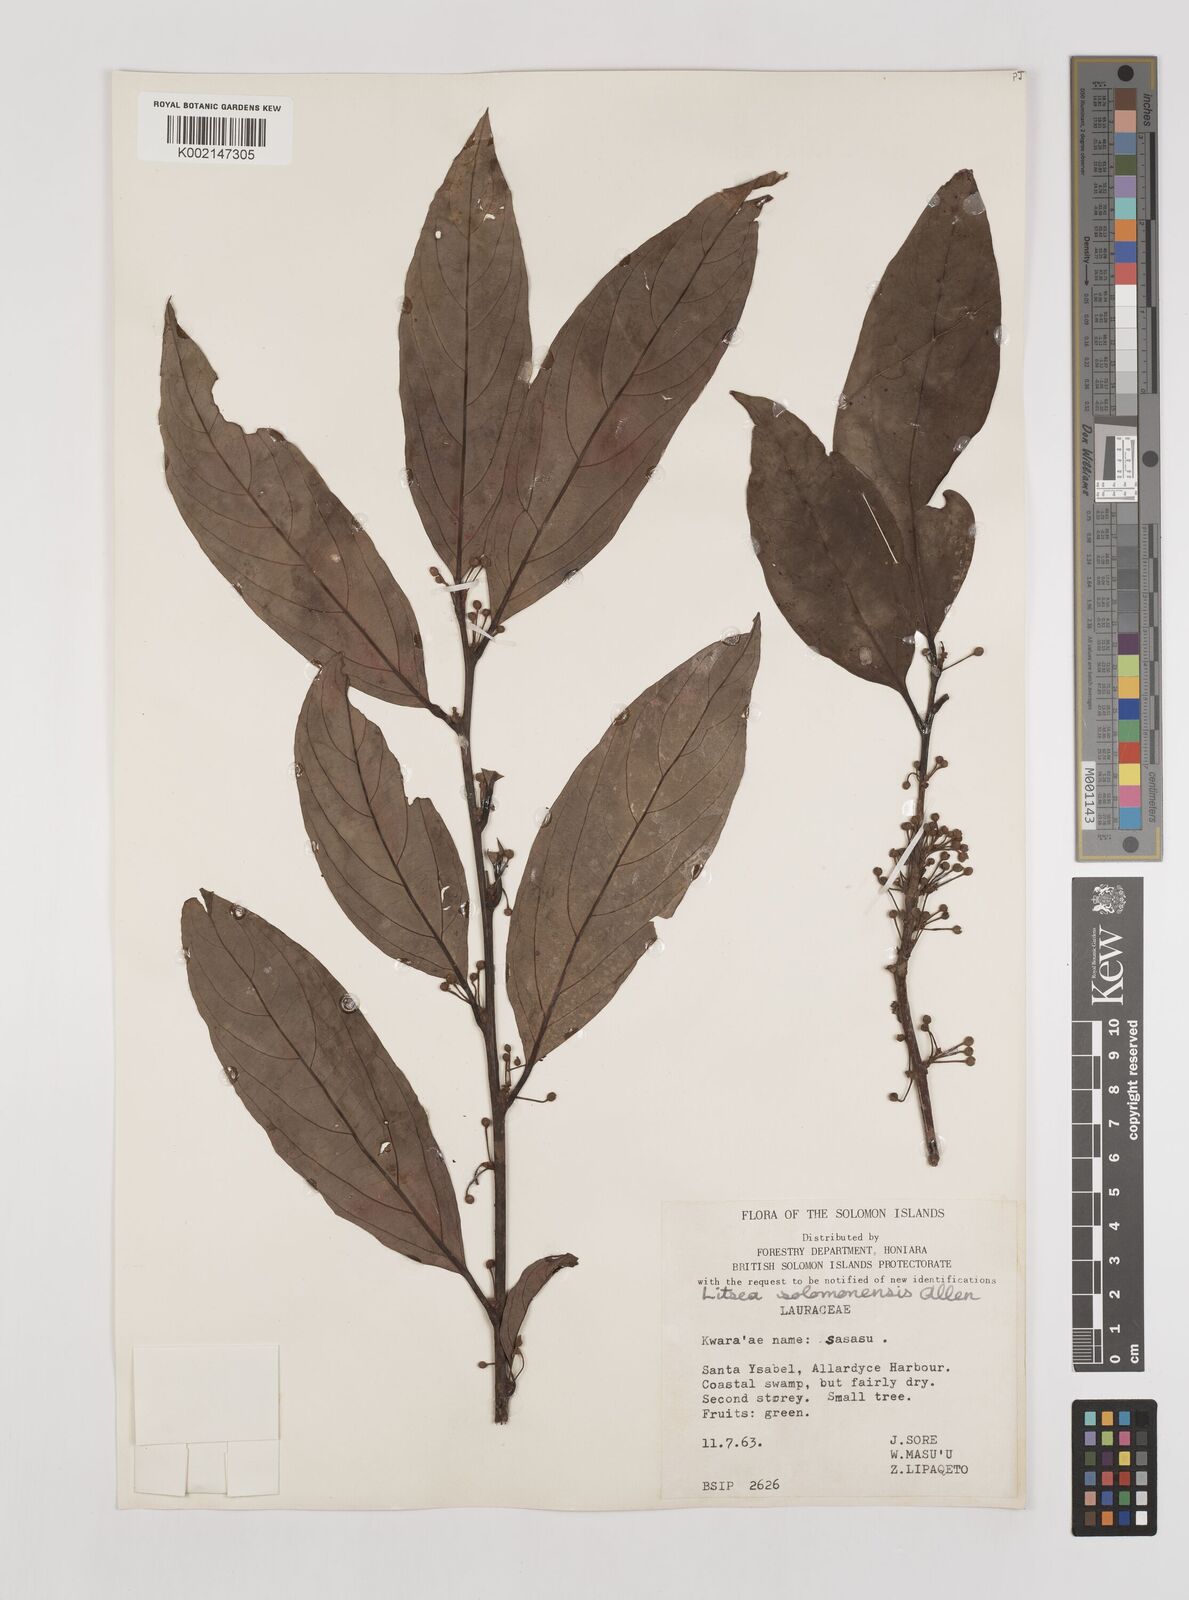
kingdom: Plantae
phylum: Tracheophyta
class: Magnoliopsida
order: Laurales
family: Lauraceae
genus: Litsea
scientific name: Litsea timoriana
